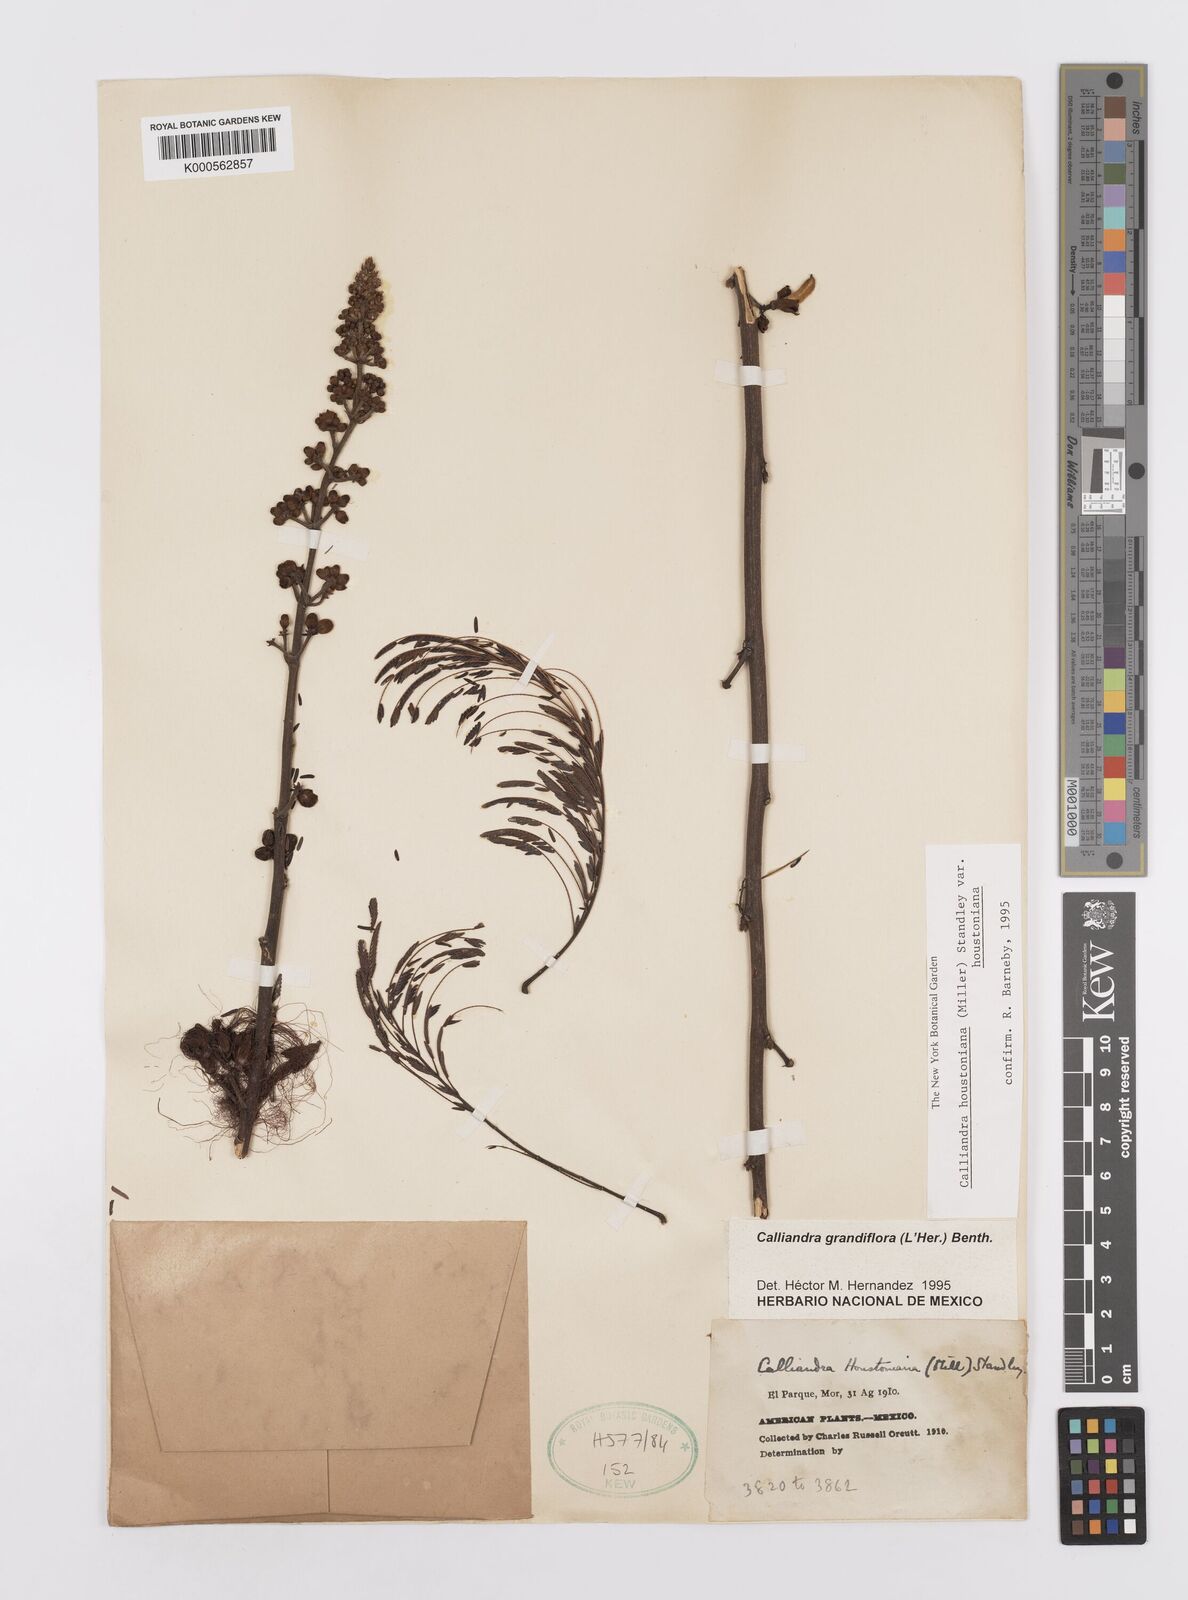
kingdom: Plantae
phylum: Tracheophyta
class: Magnoliopsida
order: Fabales
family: Fabaceae
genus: Calliandra
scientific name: Calliandra houstoniana
